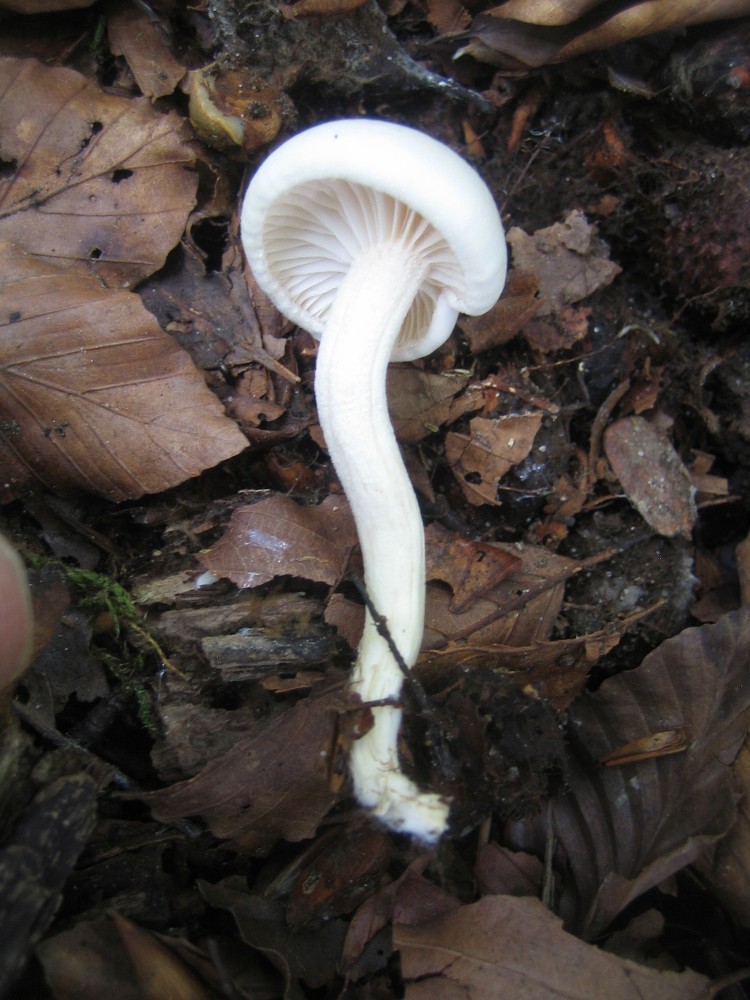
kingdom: Fungi
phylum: Basidiomycota
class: Agaricomycetes
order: Agaricales
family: Hygrophoraceae
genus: Hygrophorus
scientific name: Hygrophorus
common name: sneglehat
